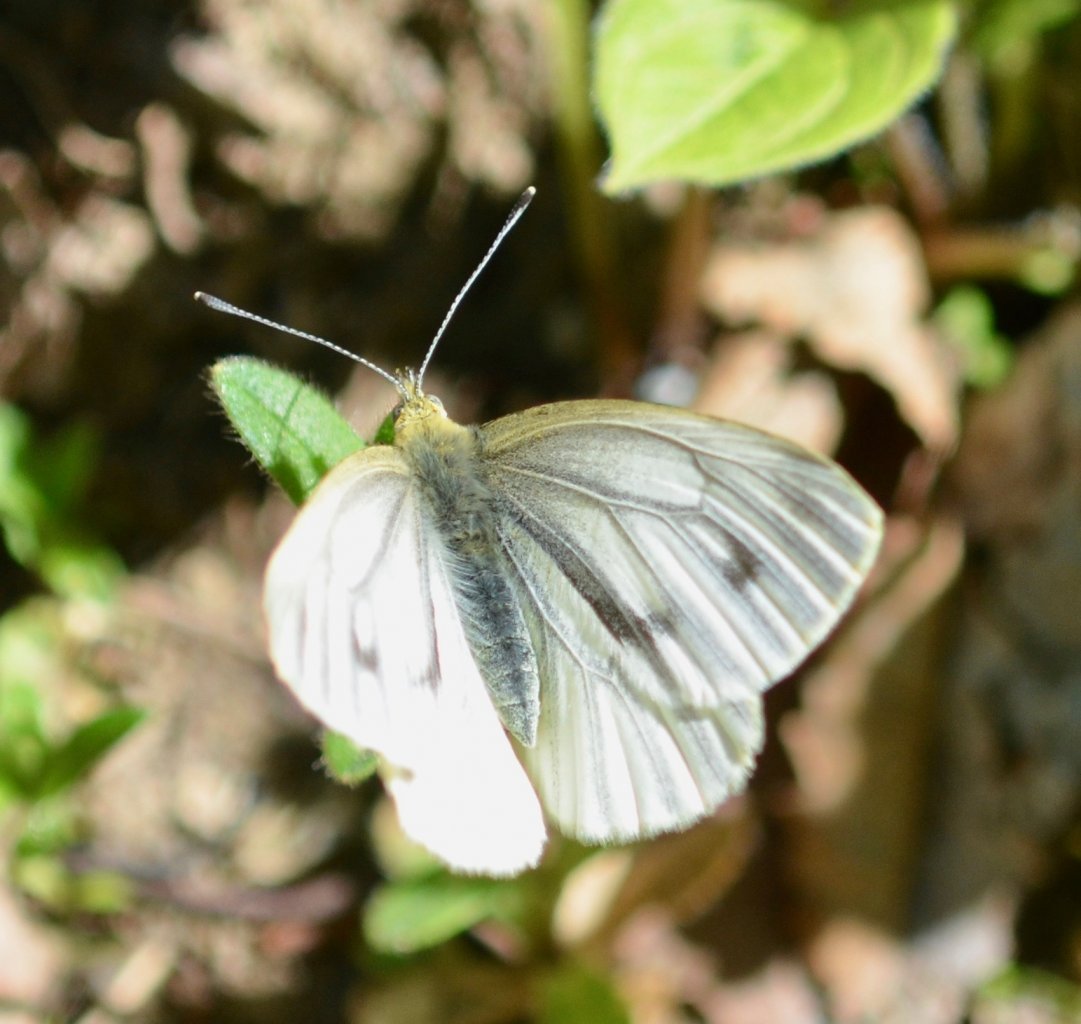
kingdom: Animalia
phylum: Arthropoda
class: Insecta
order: Lepidoptera
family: Pieridae
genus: Pieris
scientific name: Pieris angelika
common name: Arctic White
